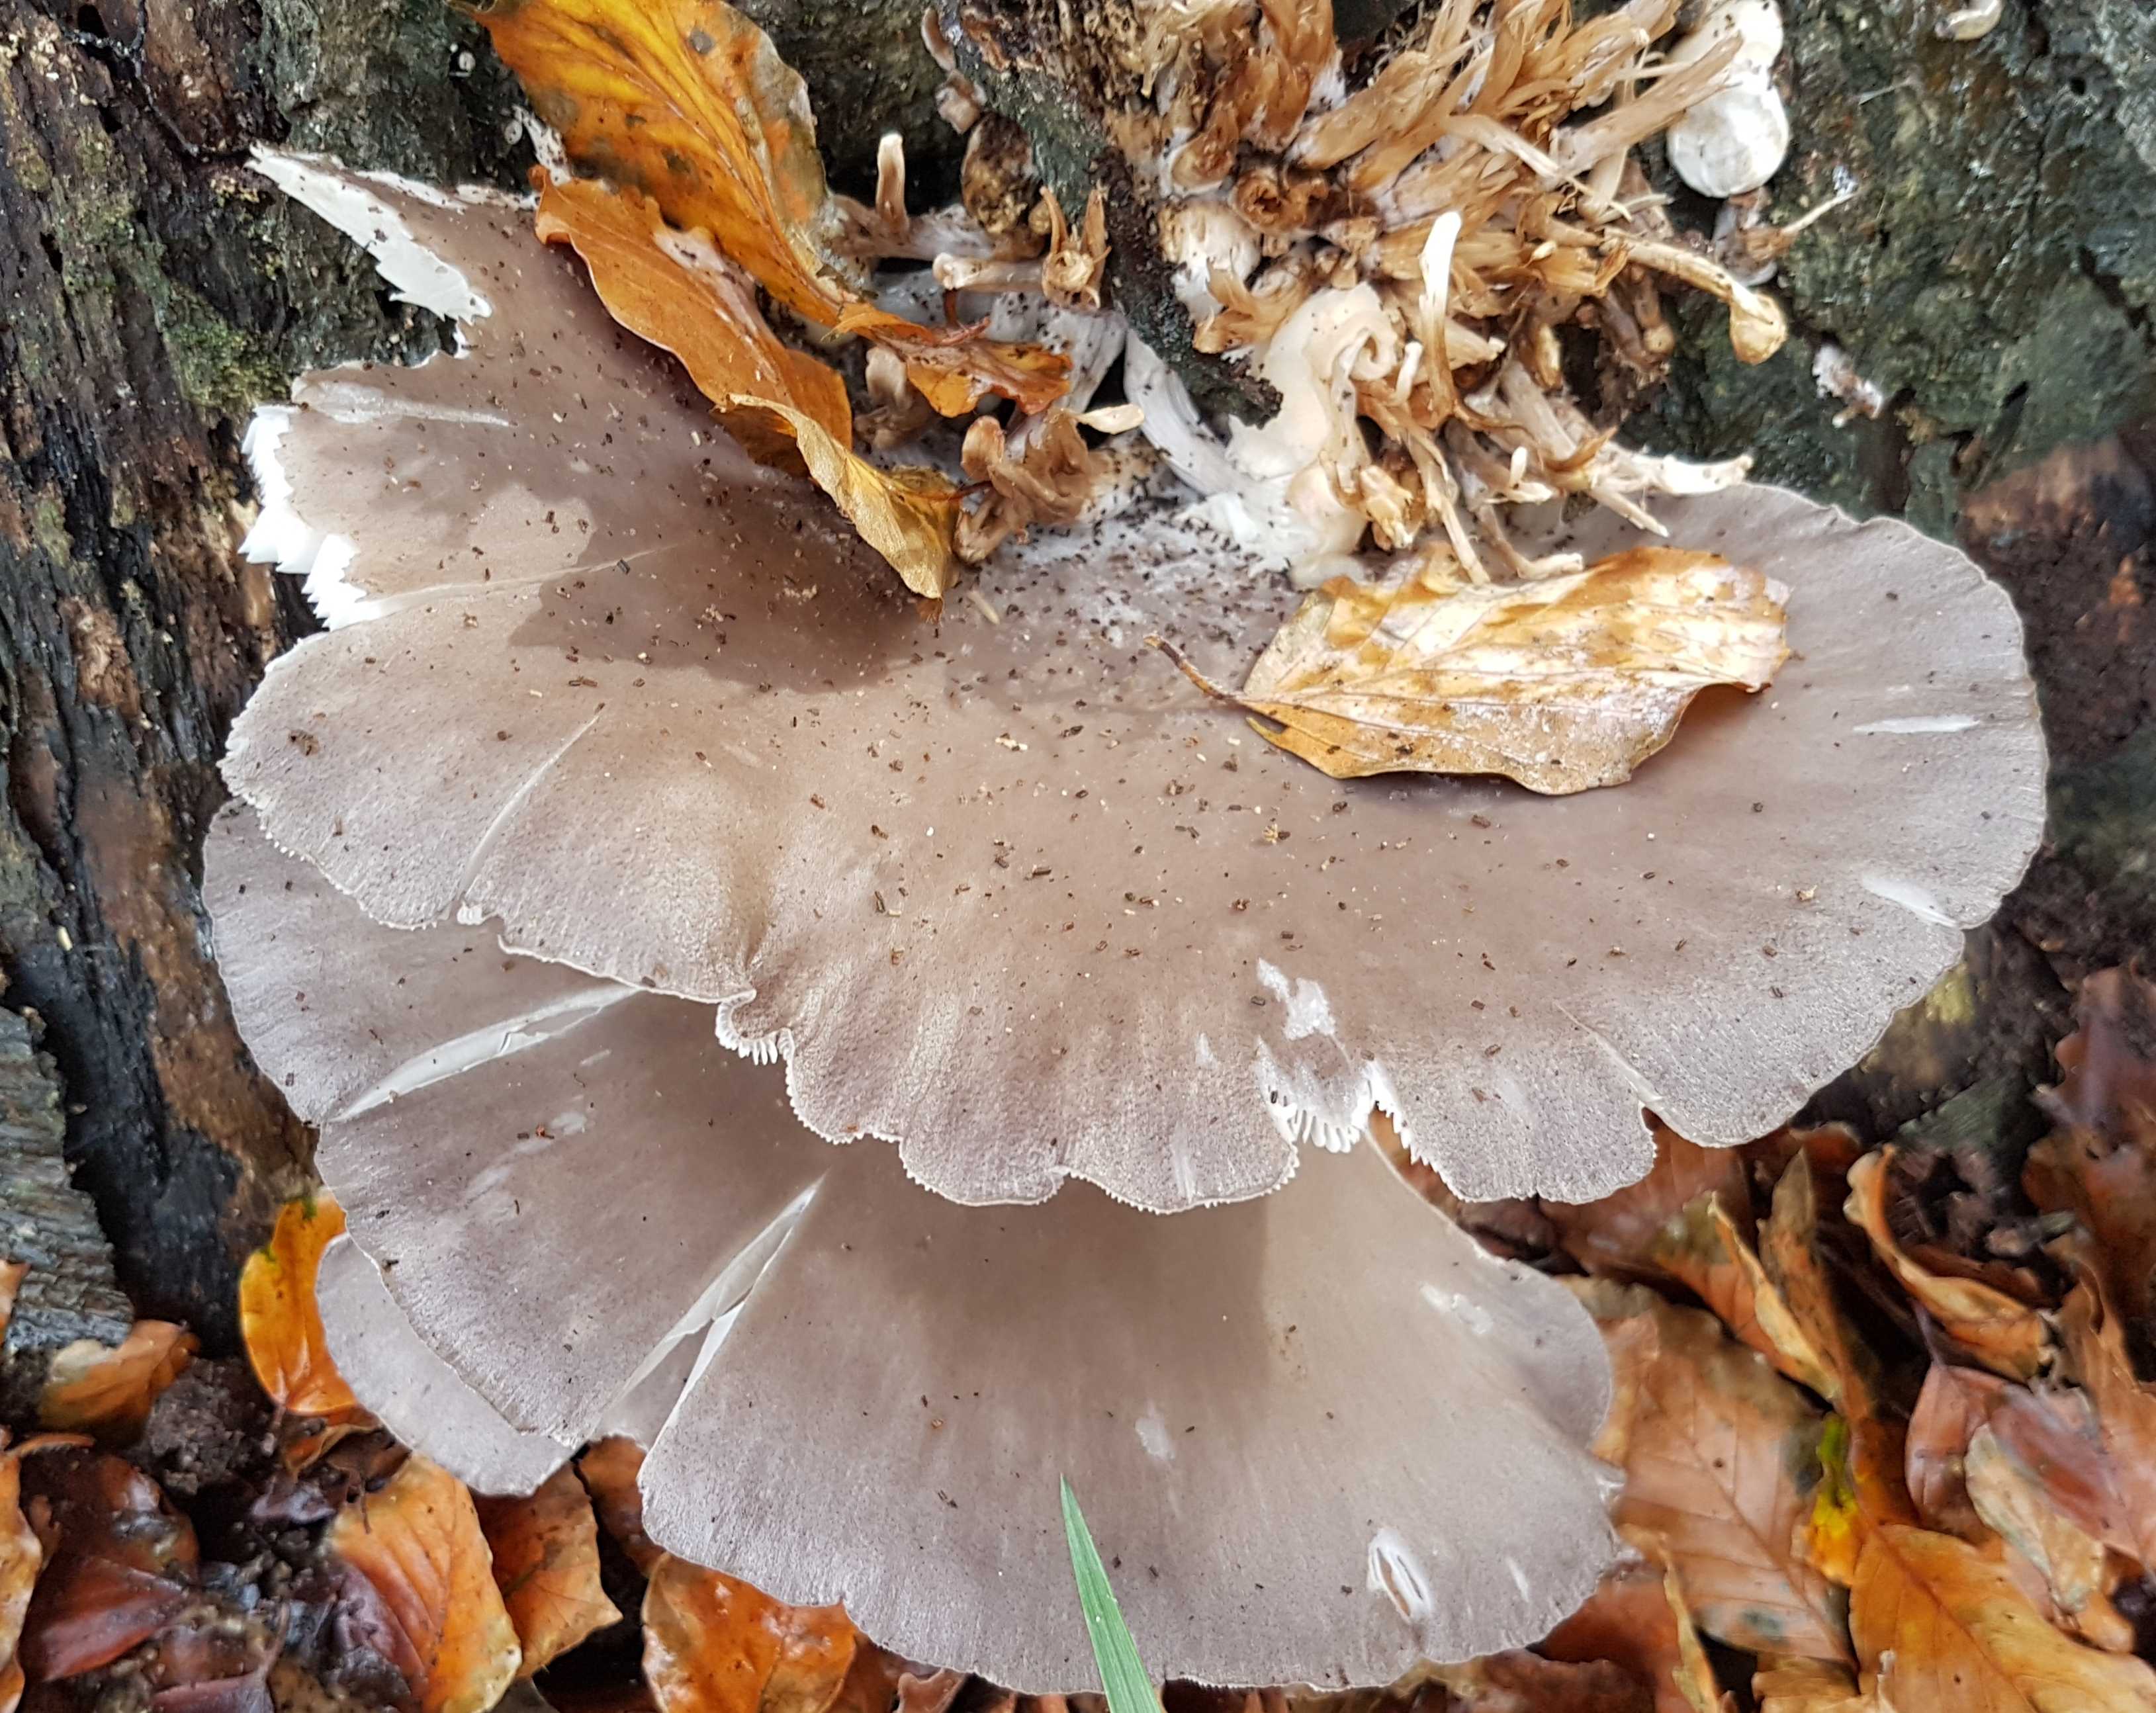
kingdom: Fungi
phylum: Basidiomycota
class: Agaricomycetes
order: Agaricales
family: Pleurotaceae
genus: Pleurotus
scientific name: Pleurotus ostreatus
